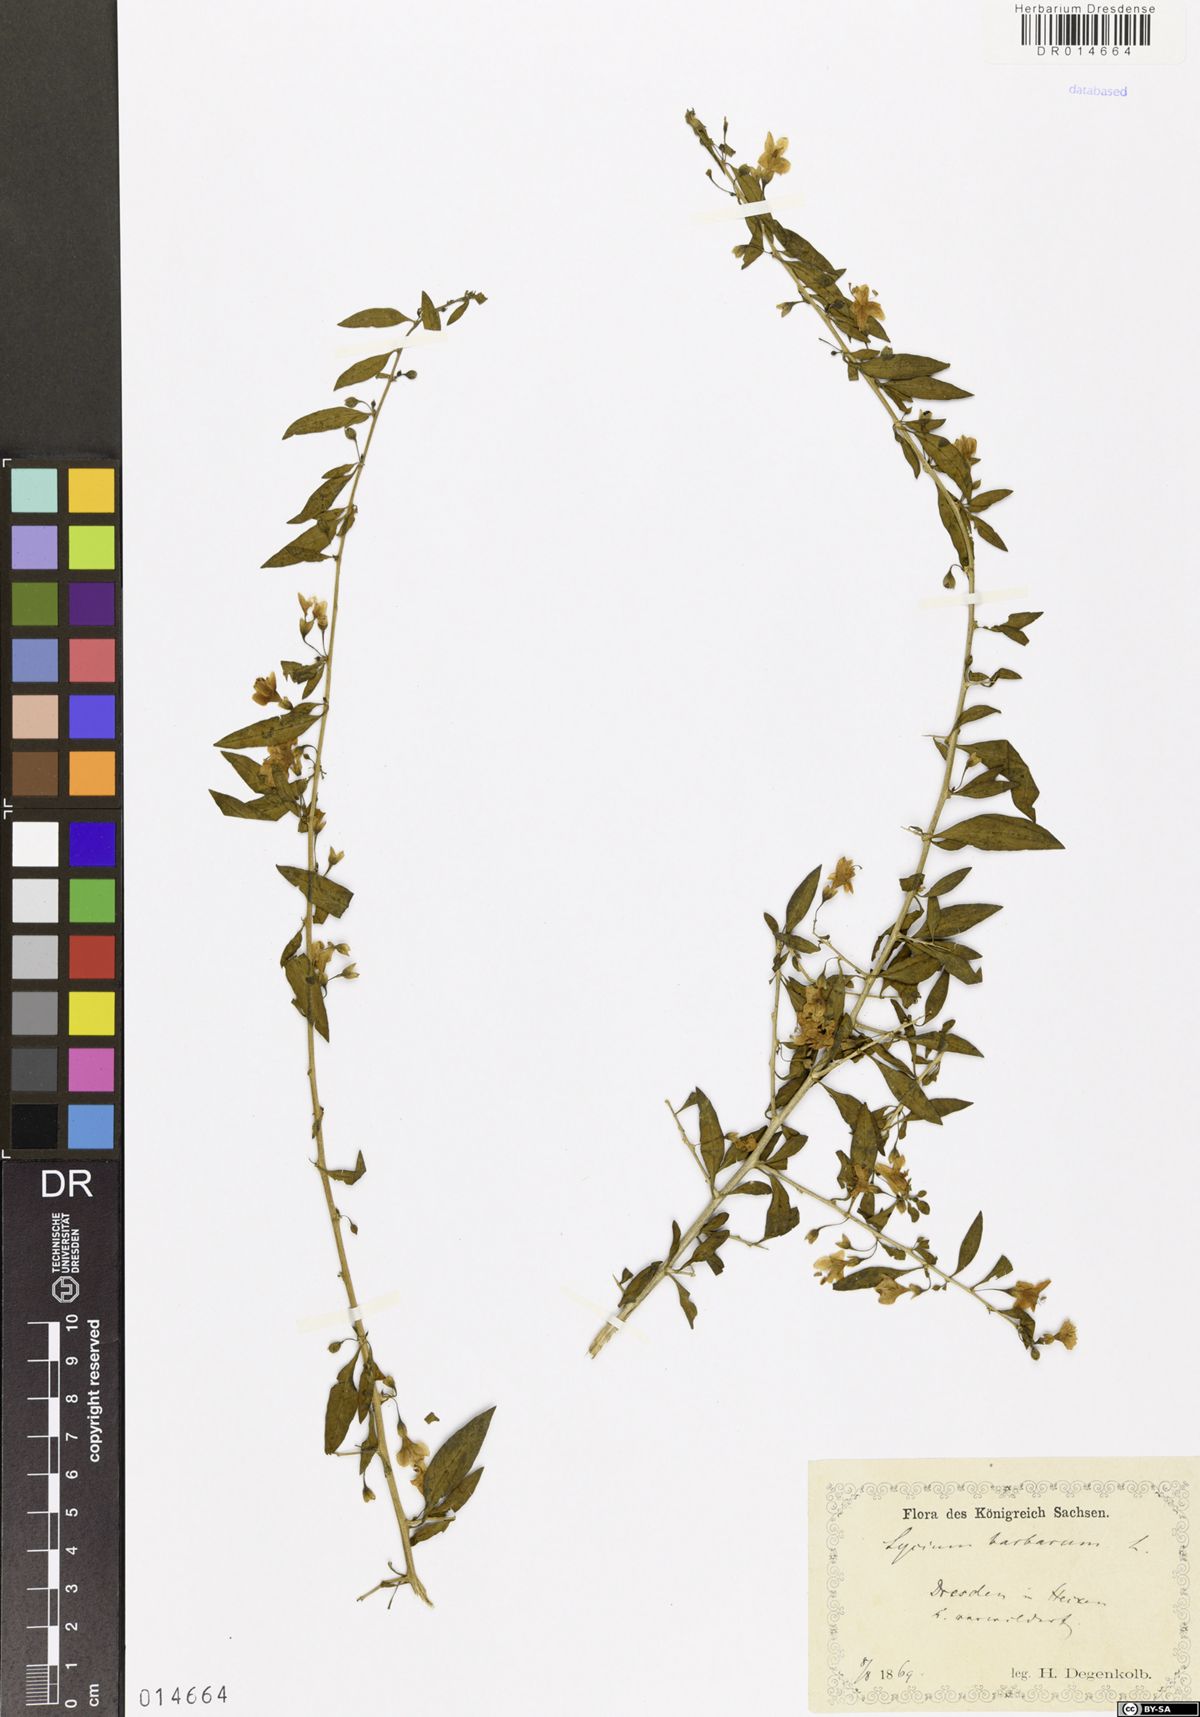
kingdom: Plantae
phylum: Tracheophyta
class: Magnoliopsida
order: Solanales
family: Solanaceae
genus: Lycium
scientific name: Lycium barbarum
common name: Duke of argyll's teaplant
